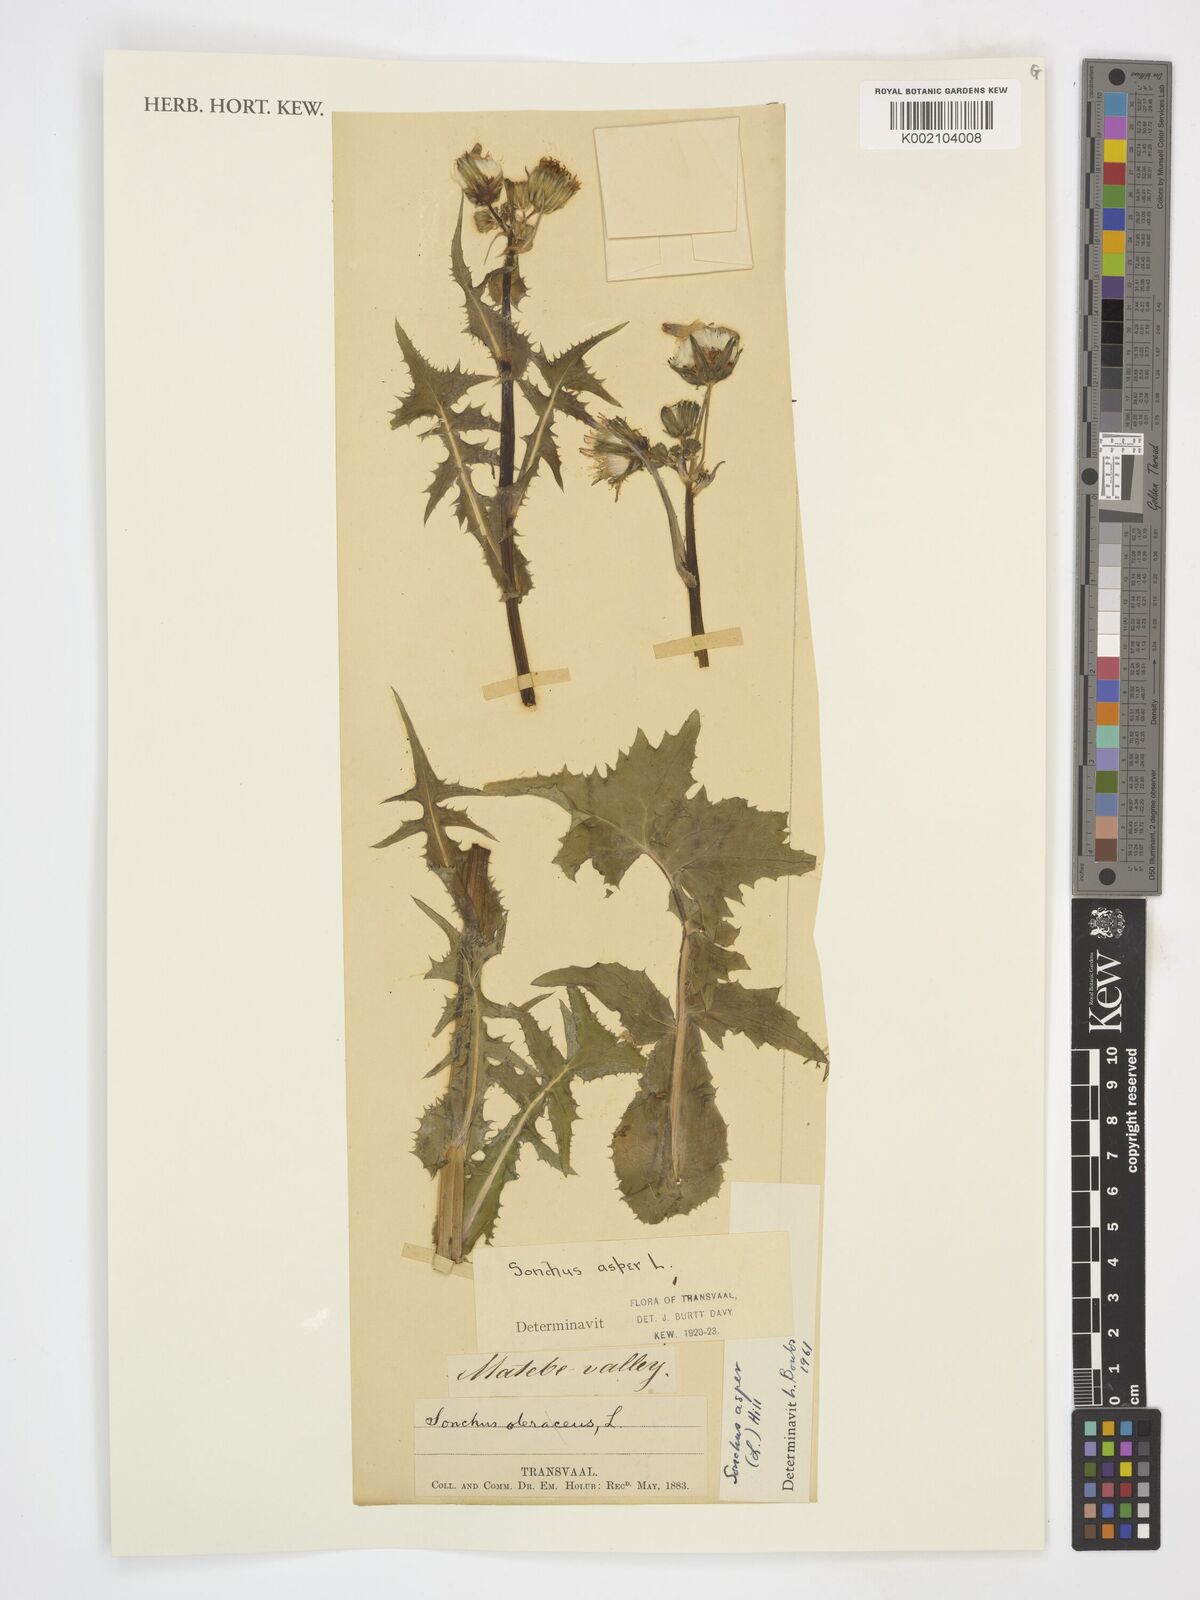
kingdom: Plantae
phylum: Tracheophyta
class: Magnoliopsida
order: Asterales
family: Asteraceae
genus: Sonchus
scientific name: Sonchus oleraceus
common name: Common sowthistle
